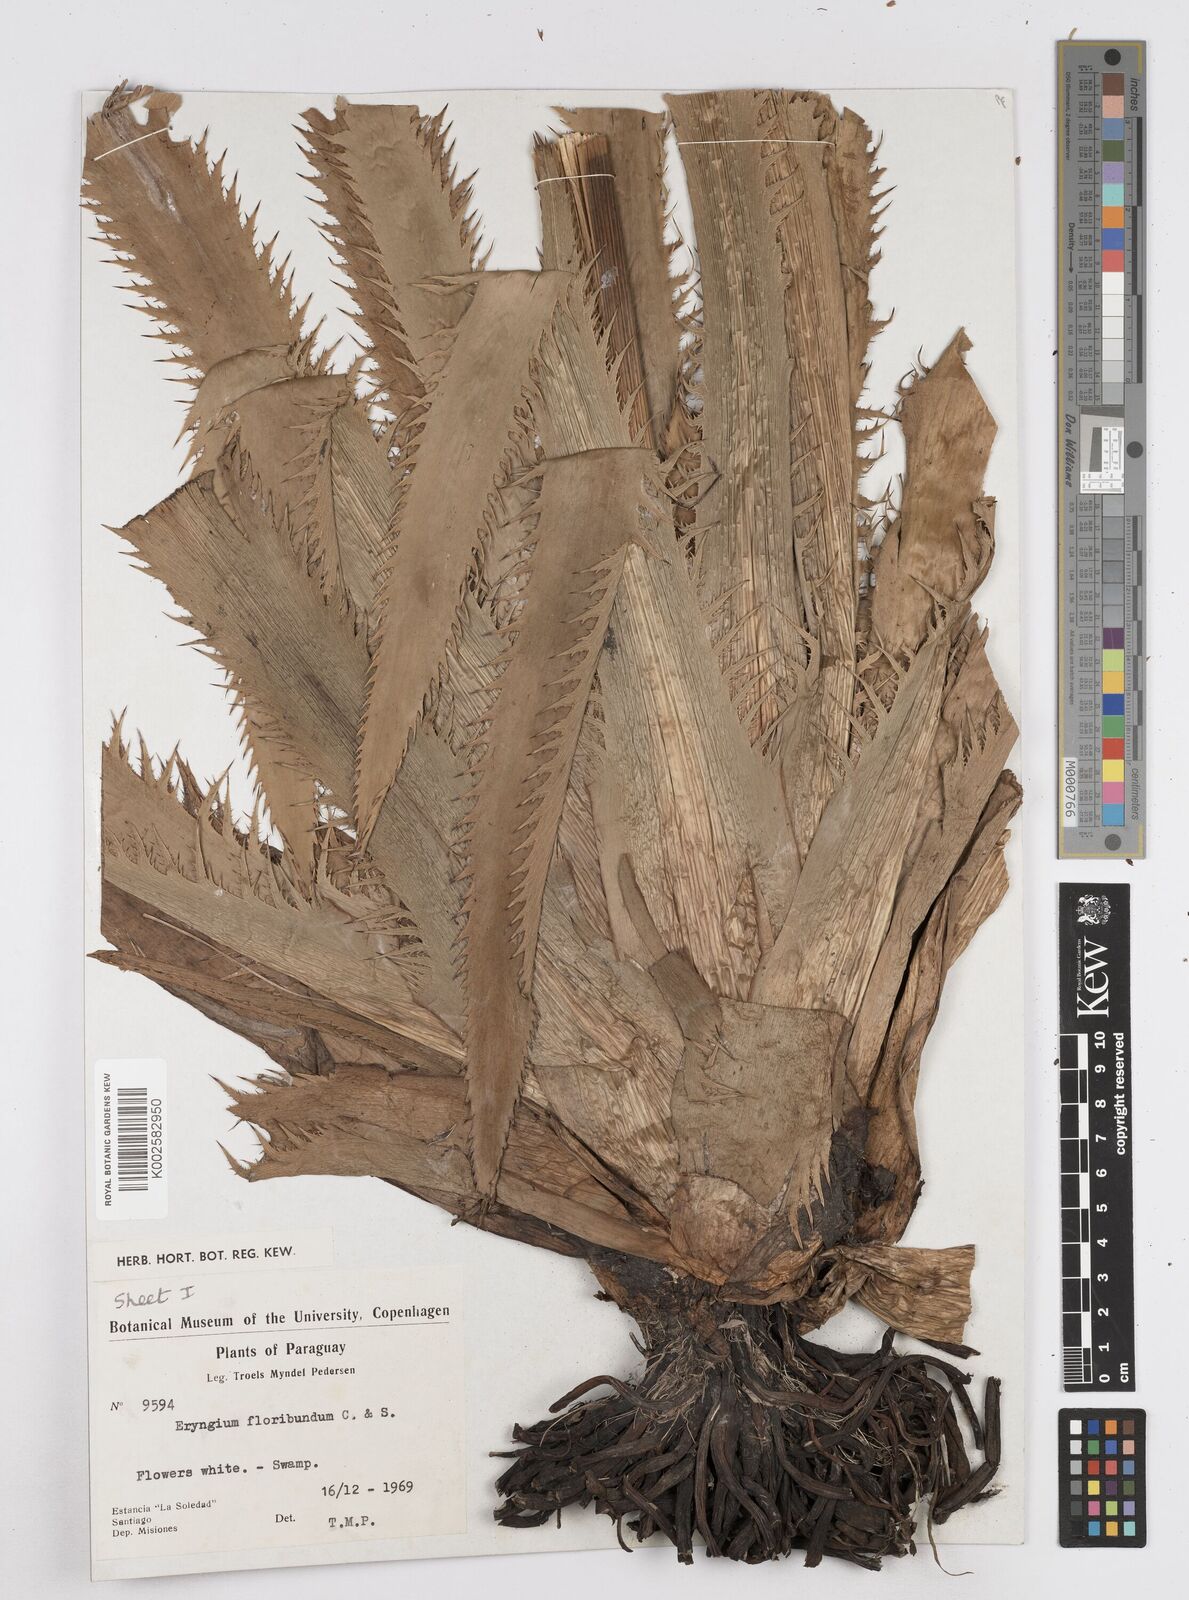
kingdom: Plantae
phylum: Tracheophyta
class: Magnoliopsida
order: Apiales
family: Apiaceae
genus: Eryngium
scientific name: Eryngium floribundum
